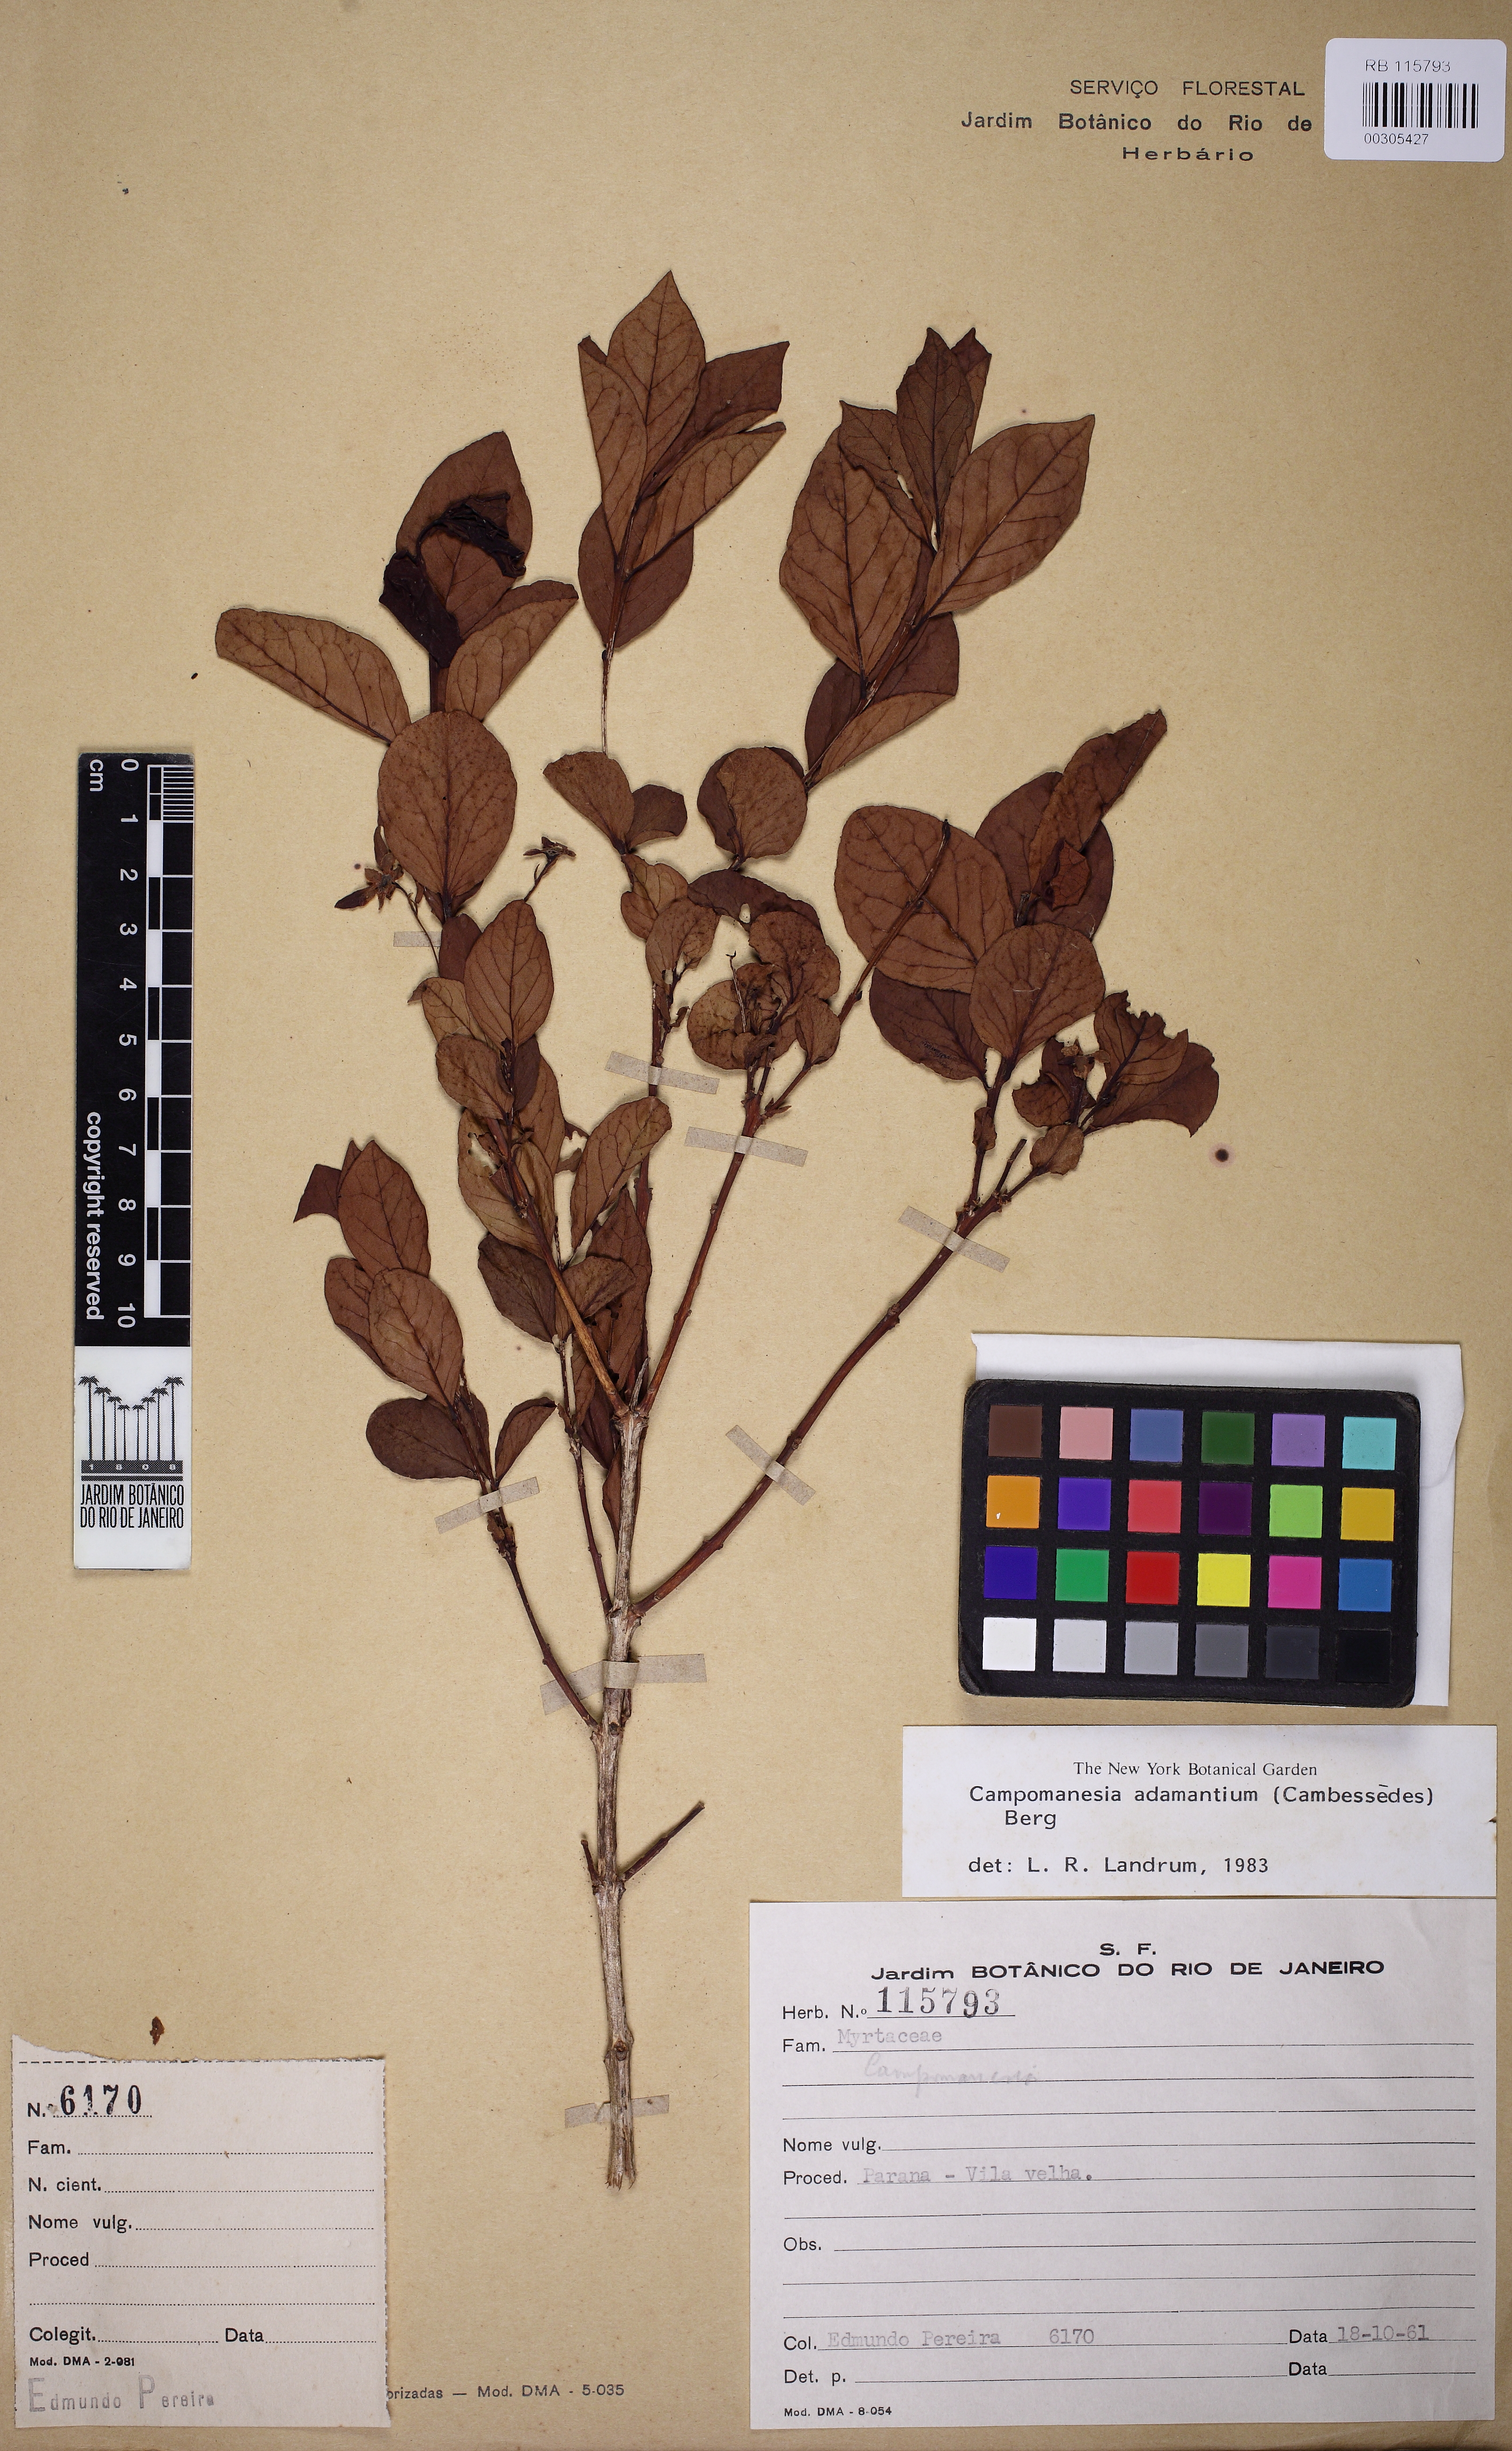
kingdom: Plantae
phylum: Tracheophyta
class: Magnoliopsida
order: Myrtales
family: Myrtaceae
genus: Campomanesia
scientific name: Campomanesia adamantium
